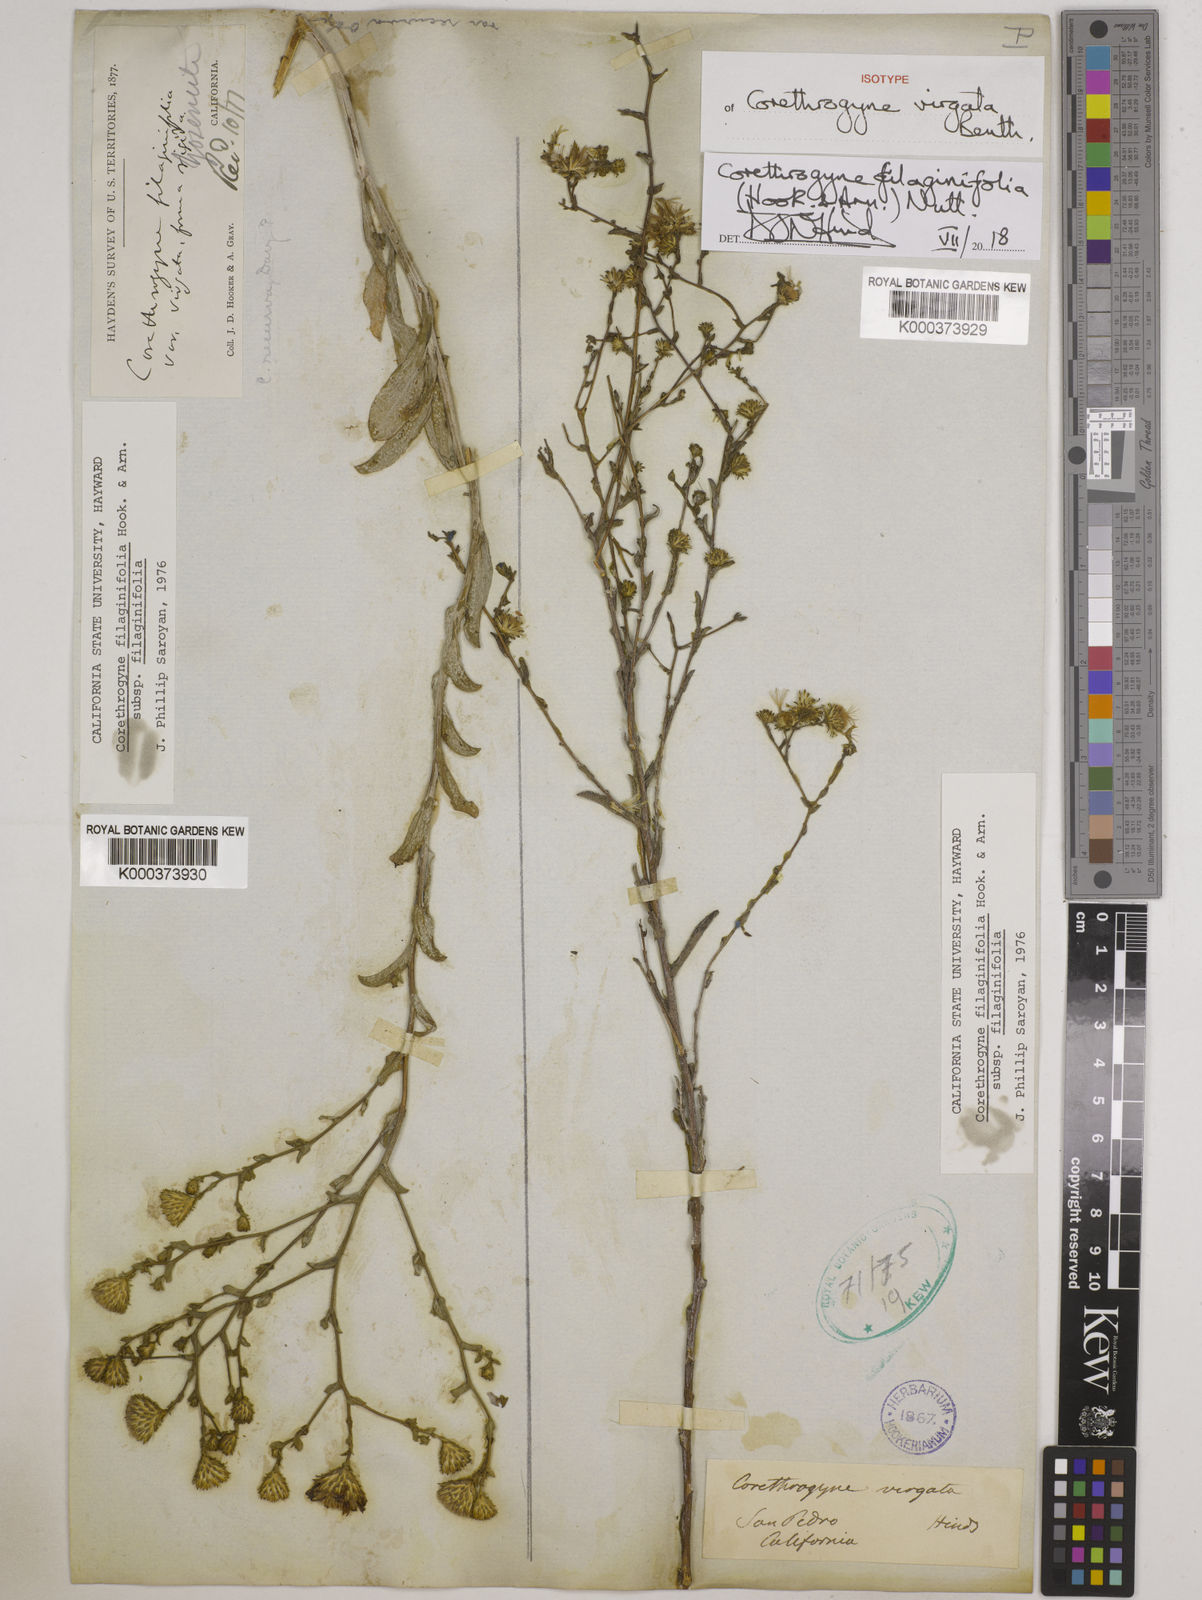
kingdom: Plantae
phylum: Tracheophyta
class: Magnoliopsida
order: Asterales
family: Asteraceae
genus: Corethrogyne
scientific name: Corethrogyne filaginifolia
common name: Sand-aster
